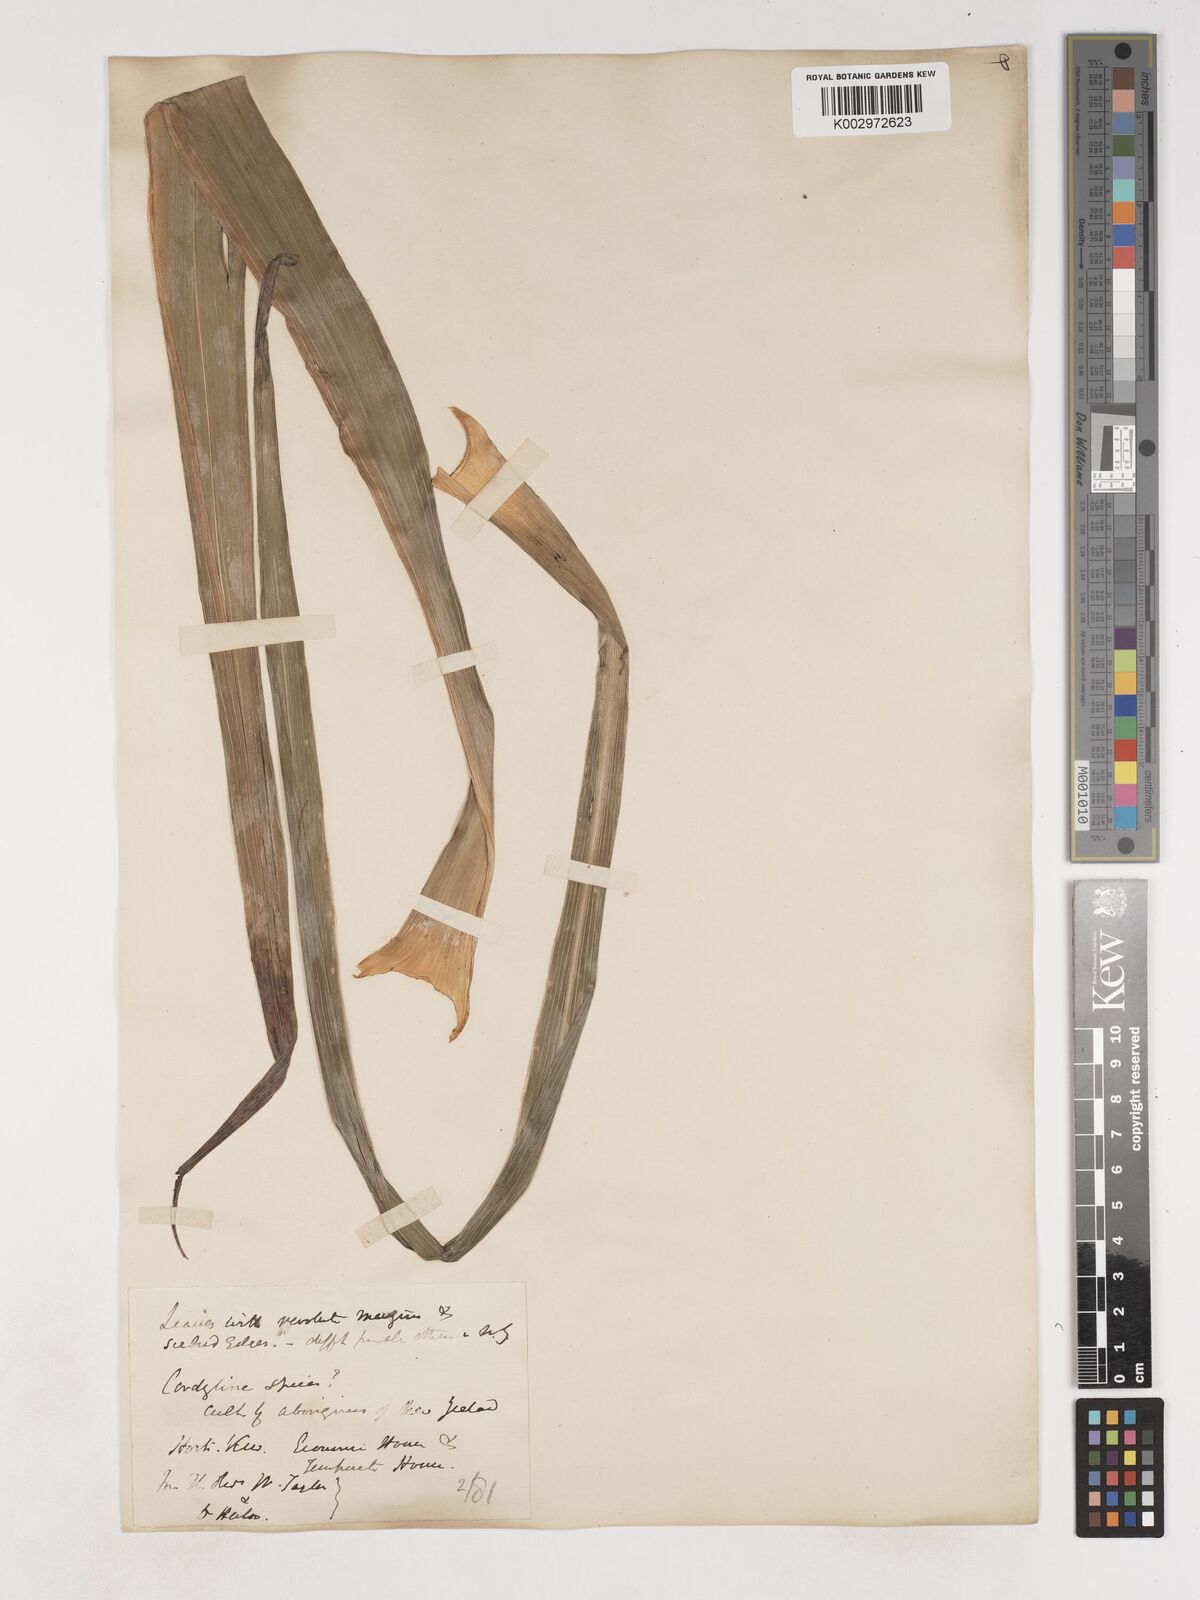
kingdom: Plantae
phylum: Tracheophyta
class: Liliopsida
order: Asparagales
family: Asparagaceae
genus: Cordyline
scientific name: Cordyline
